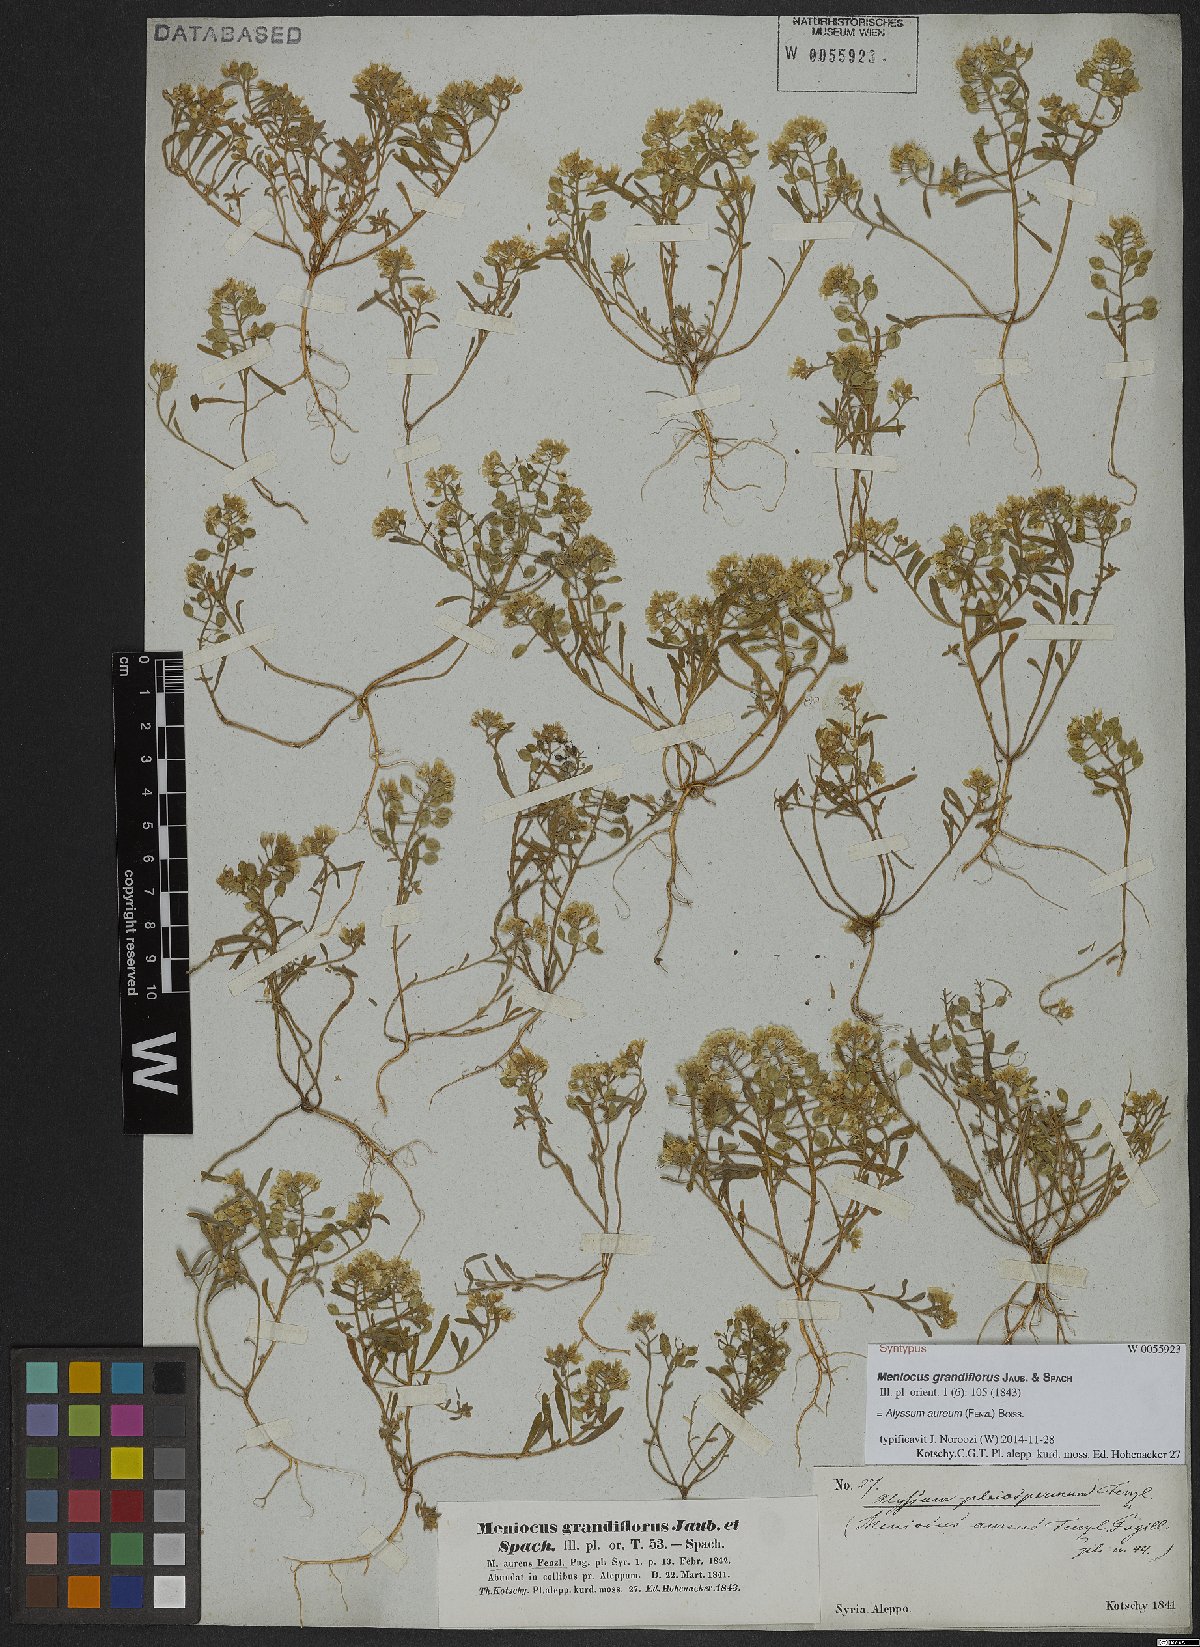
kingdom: Plantae
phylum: Tracheophyta
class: Magnoliopsida
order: Brassicales
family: Brassicaceae
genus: Meniocus
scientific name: Meniocus aureus
